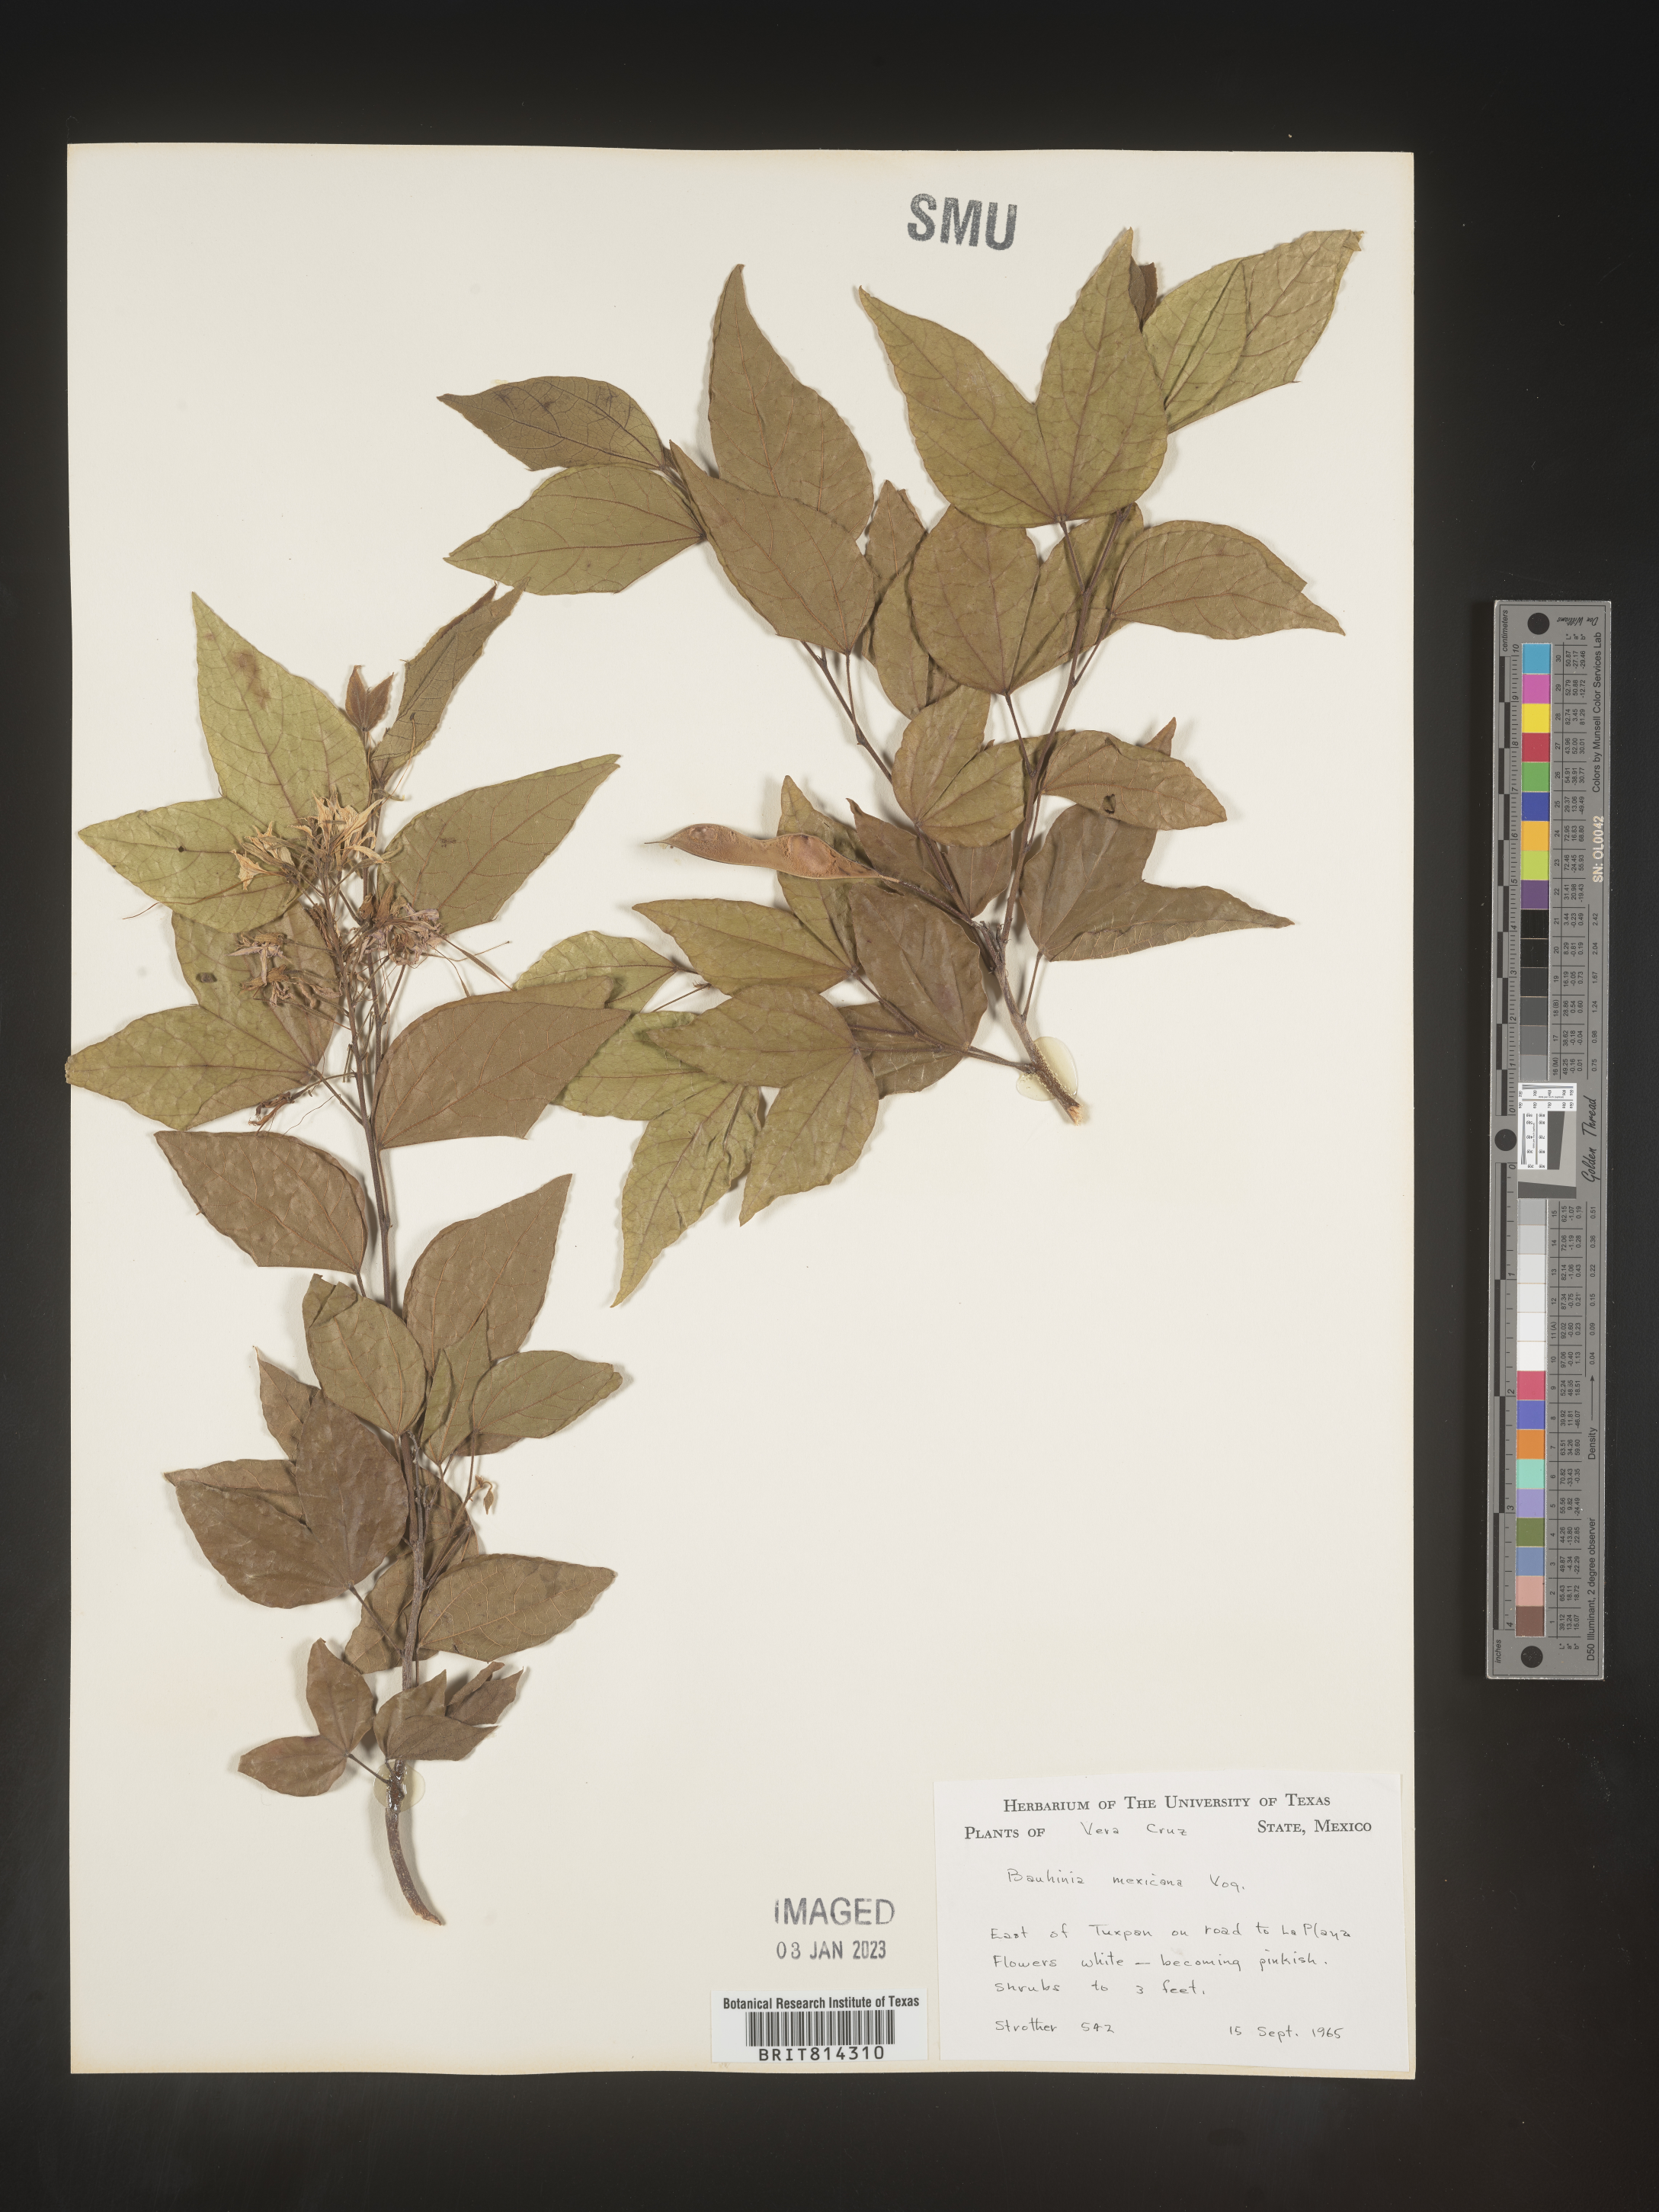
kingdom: Plantae
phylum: Tracheophyta
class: Magnoliopsida
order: Fabales
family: Fabaceae
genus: Bauhinia
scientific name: Bauhinia
